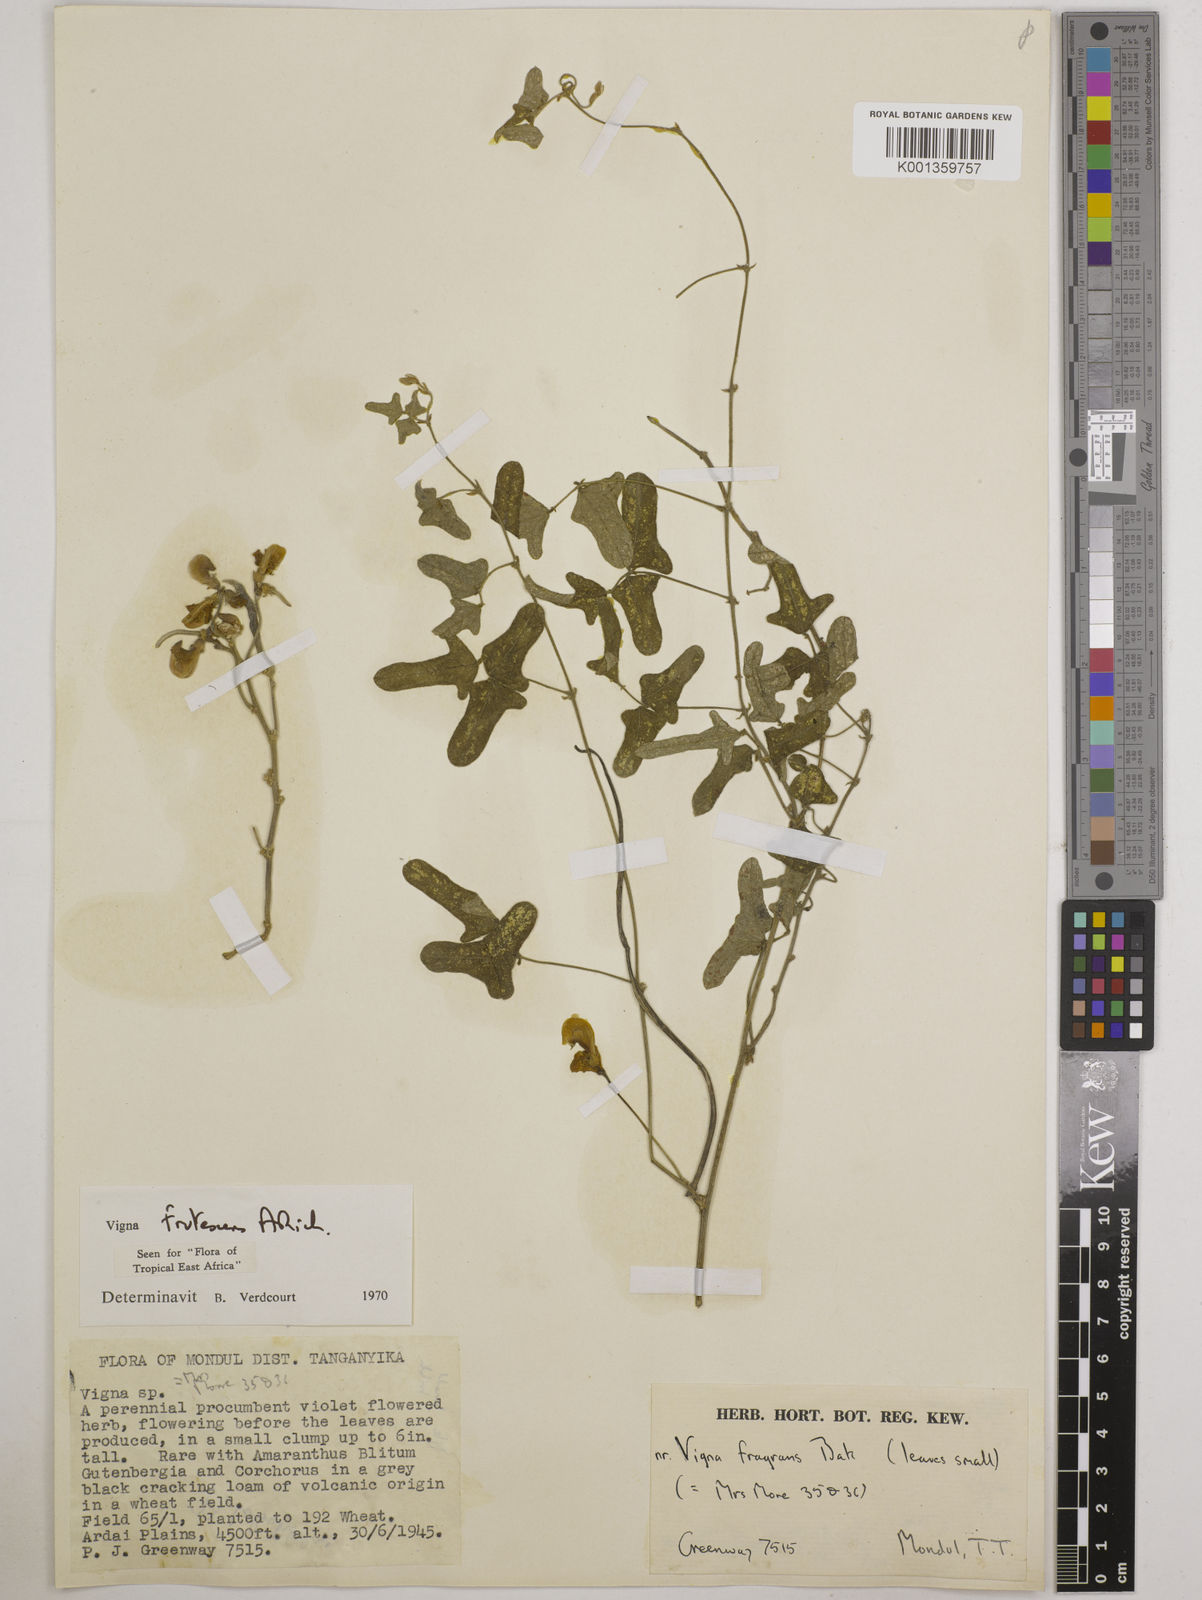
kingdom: Plantae
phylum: Tracheophyta
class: Magnoliopsida
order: Fabales
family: Fabaceae
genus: Vigna
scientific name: Vigna frutescens
